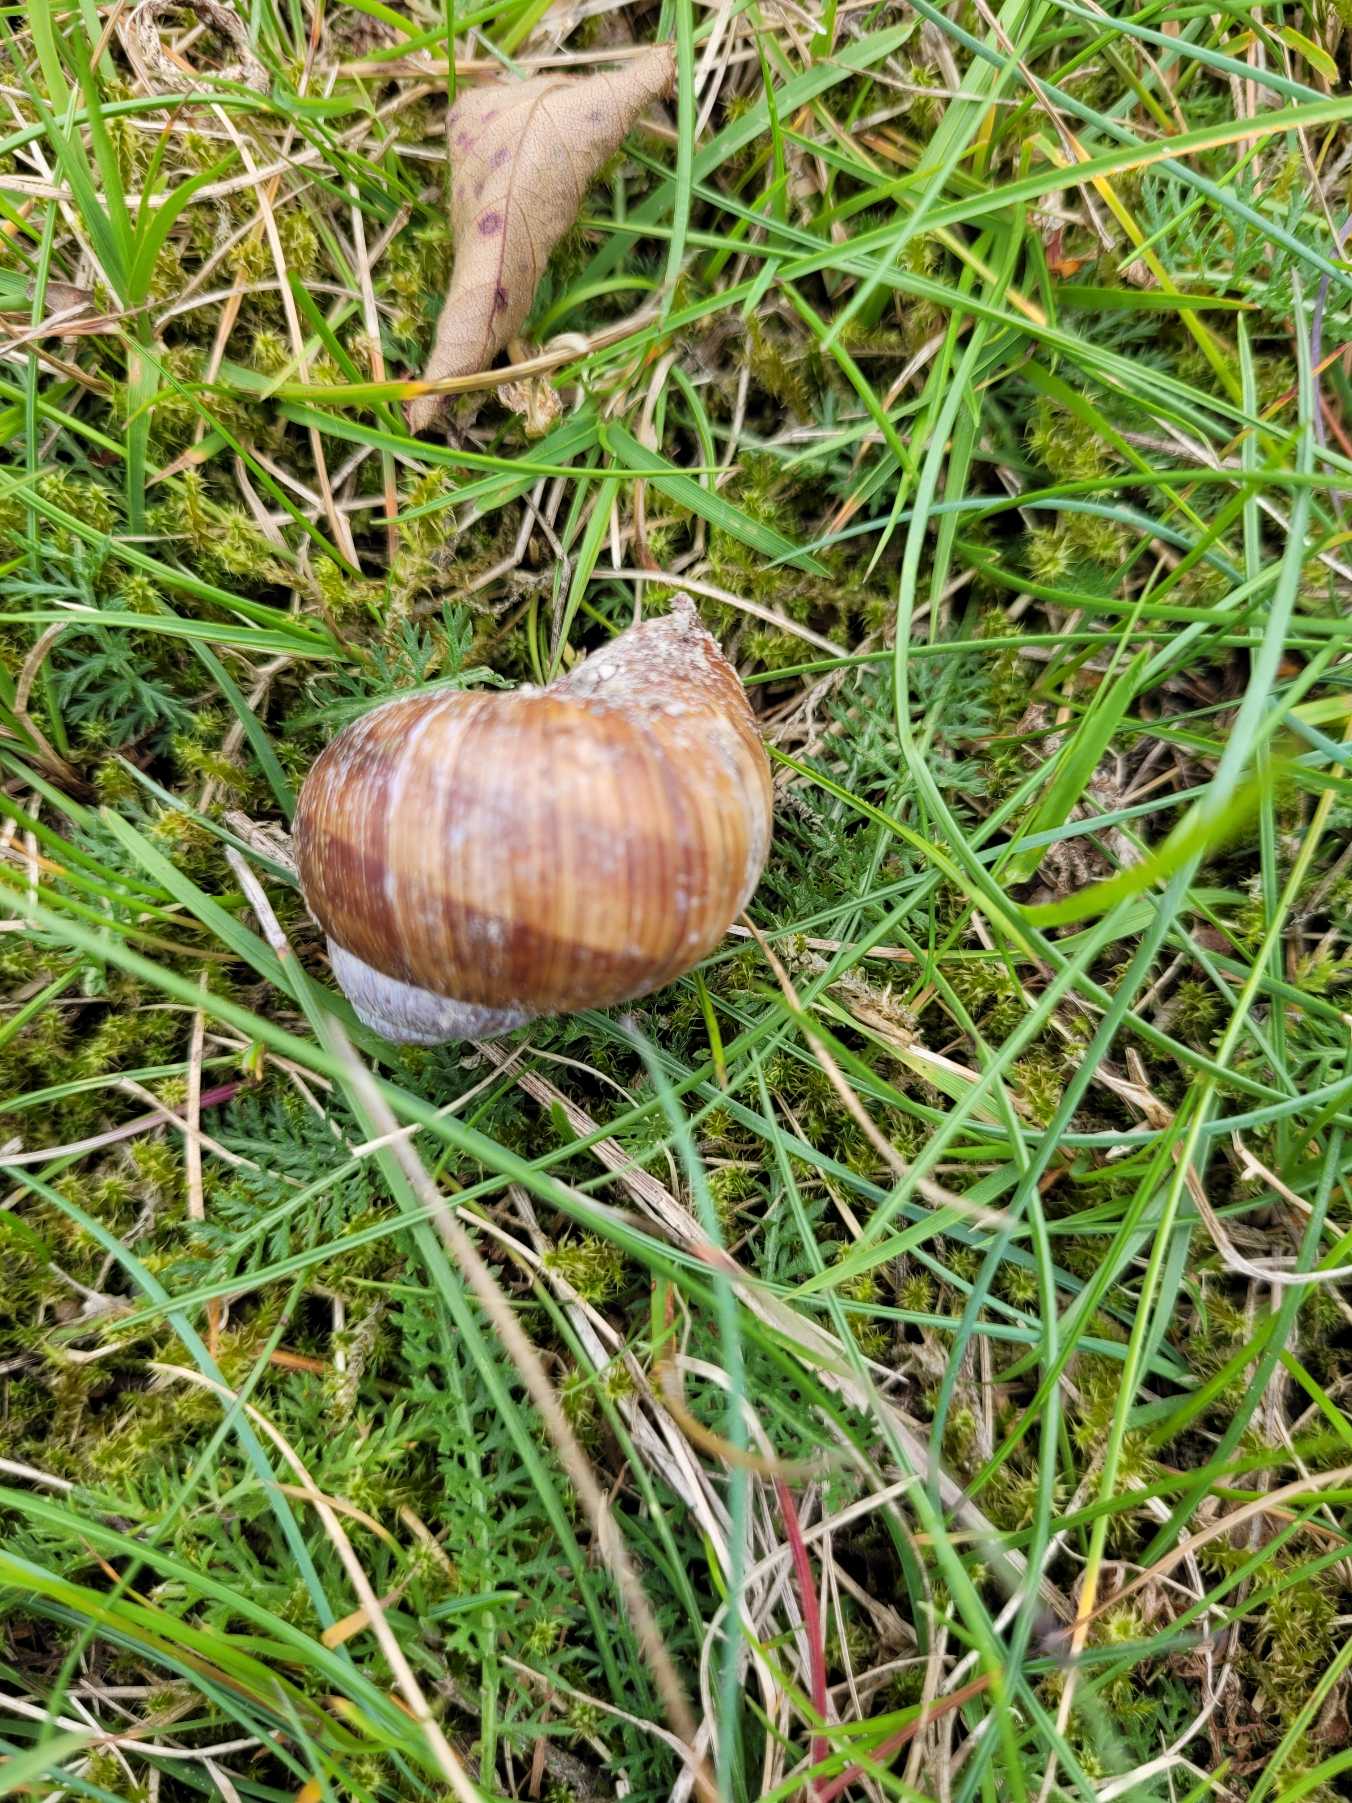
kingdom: Animalia
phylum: Mollusca
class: Gastropoda
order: Stylommatophora
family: Helicidae
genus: Helix
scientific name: Helix pomatia
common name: Vinbjergsnegl
